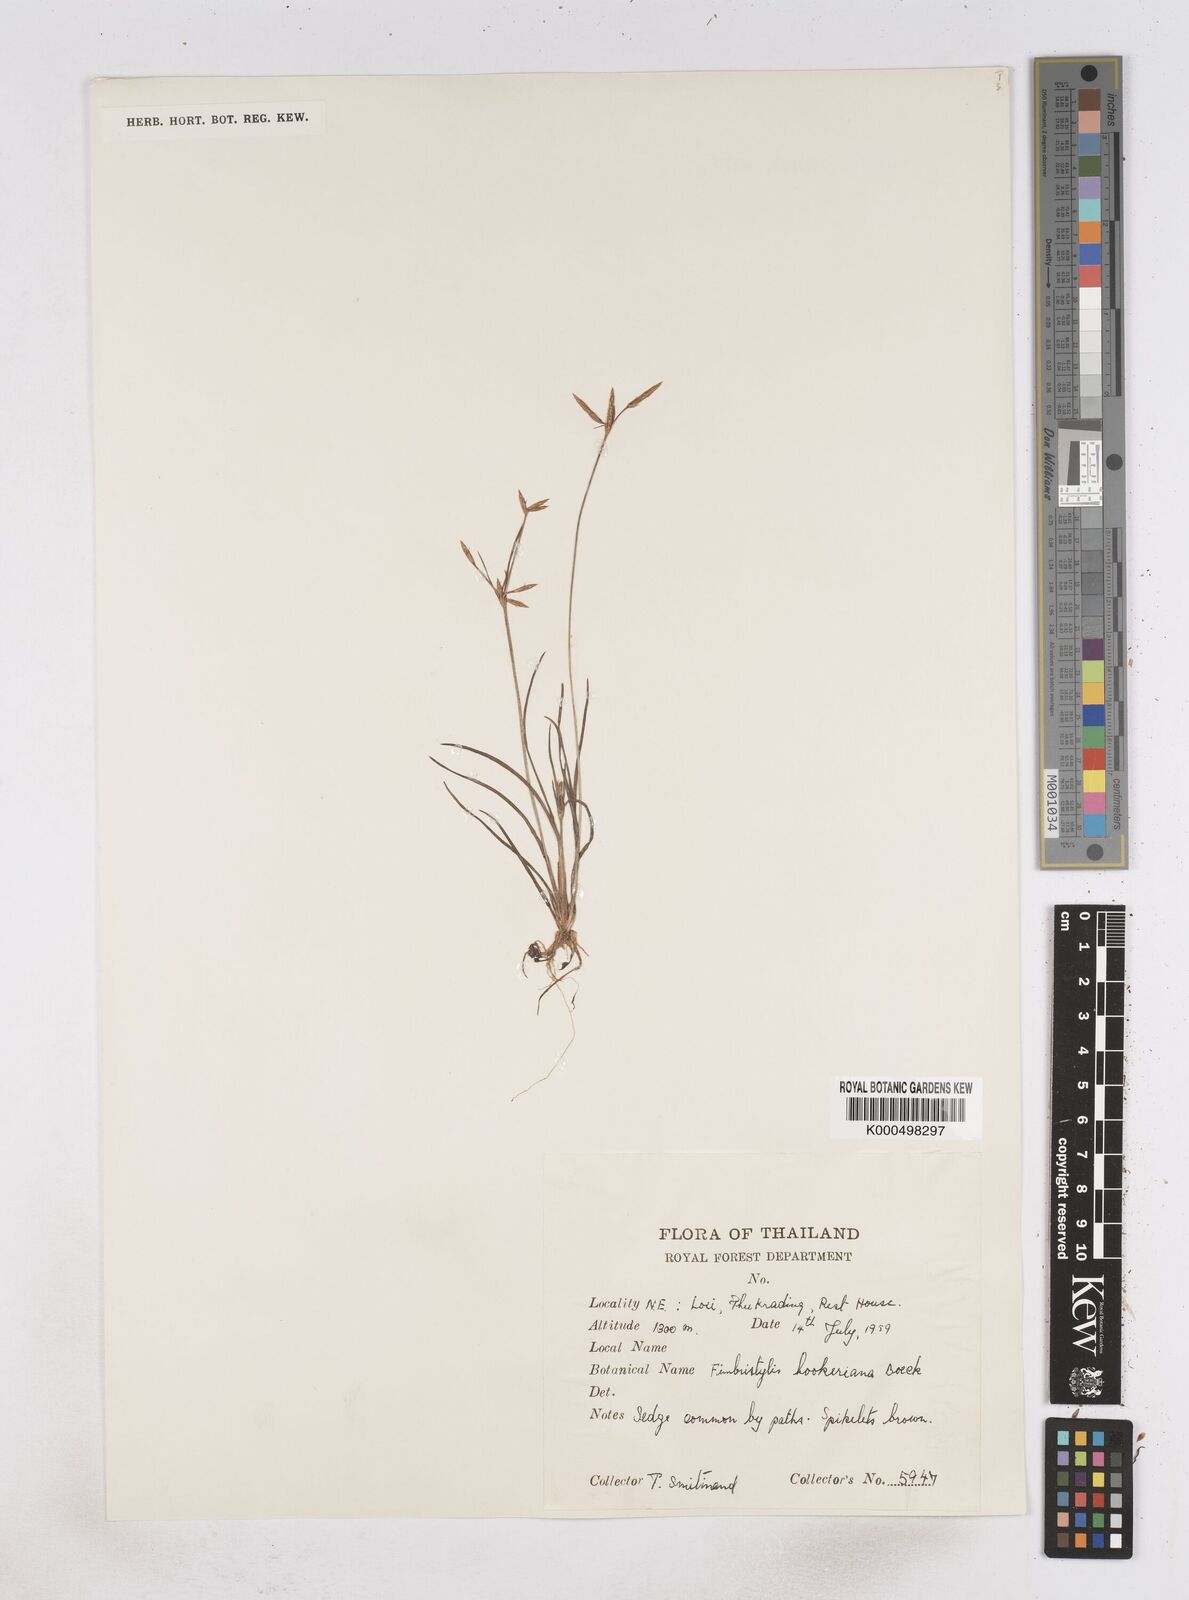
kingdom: Plantae
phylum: Tracheophyta
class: Liliopsida
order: Poales
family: Cyperaceae
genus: Fimbristylis
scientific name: Fimbristylis hookeriana
